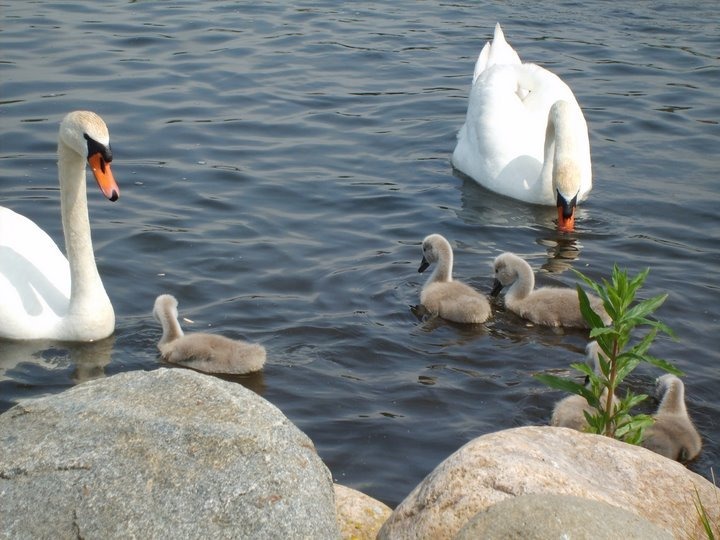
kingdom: Animalia
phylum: Chordata
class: Aves
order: Anseriformes
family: Anatidae
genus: Cygnus
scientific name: Cygnus olor
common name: Knopsvane
